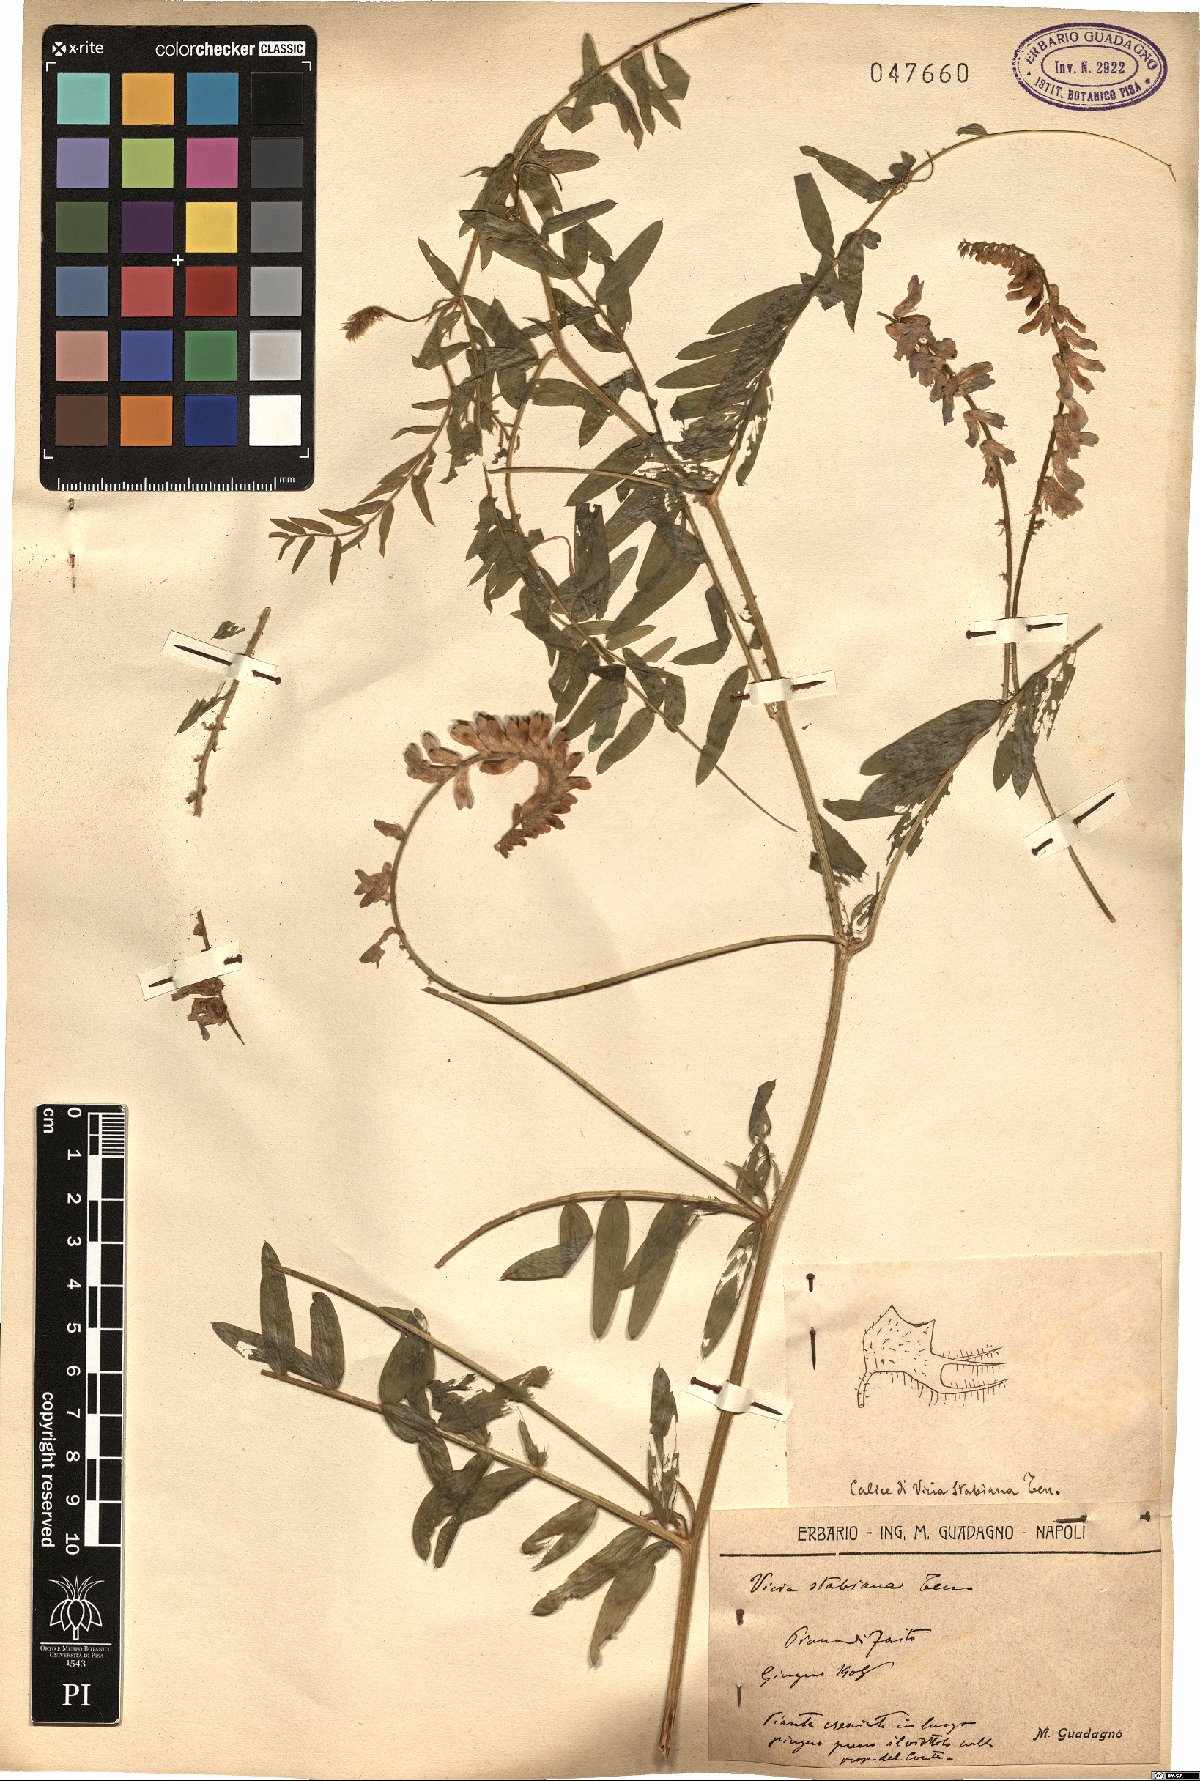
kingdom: Plantae
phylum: Tracheophyta
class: Magnoliopsida
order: Fabales
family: Fabaceae
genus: Vicia
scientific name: Vicia incana
